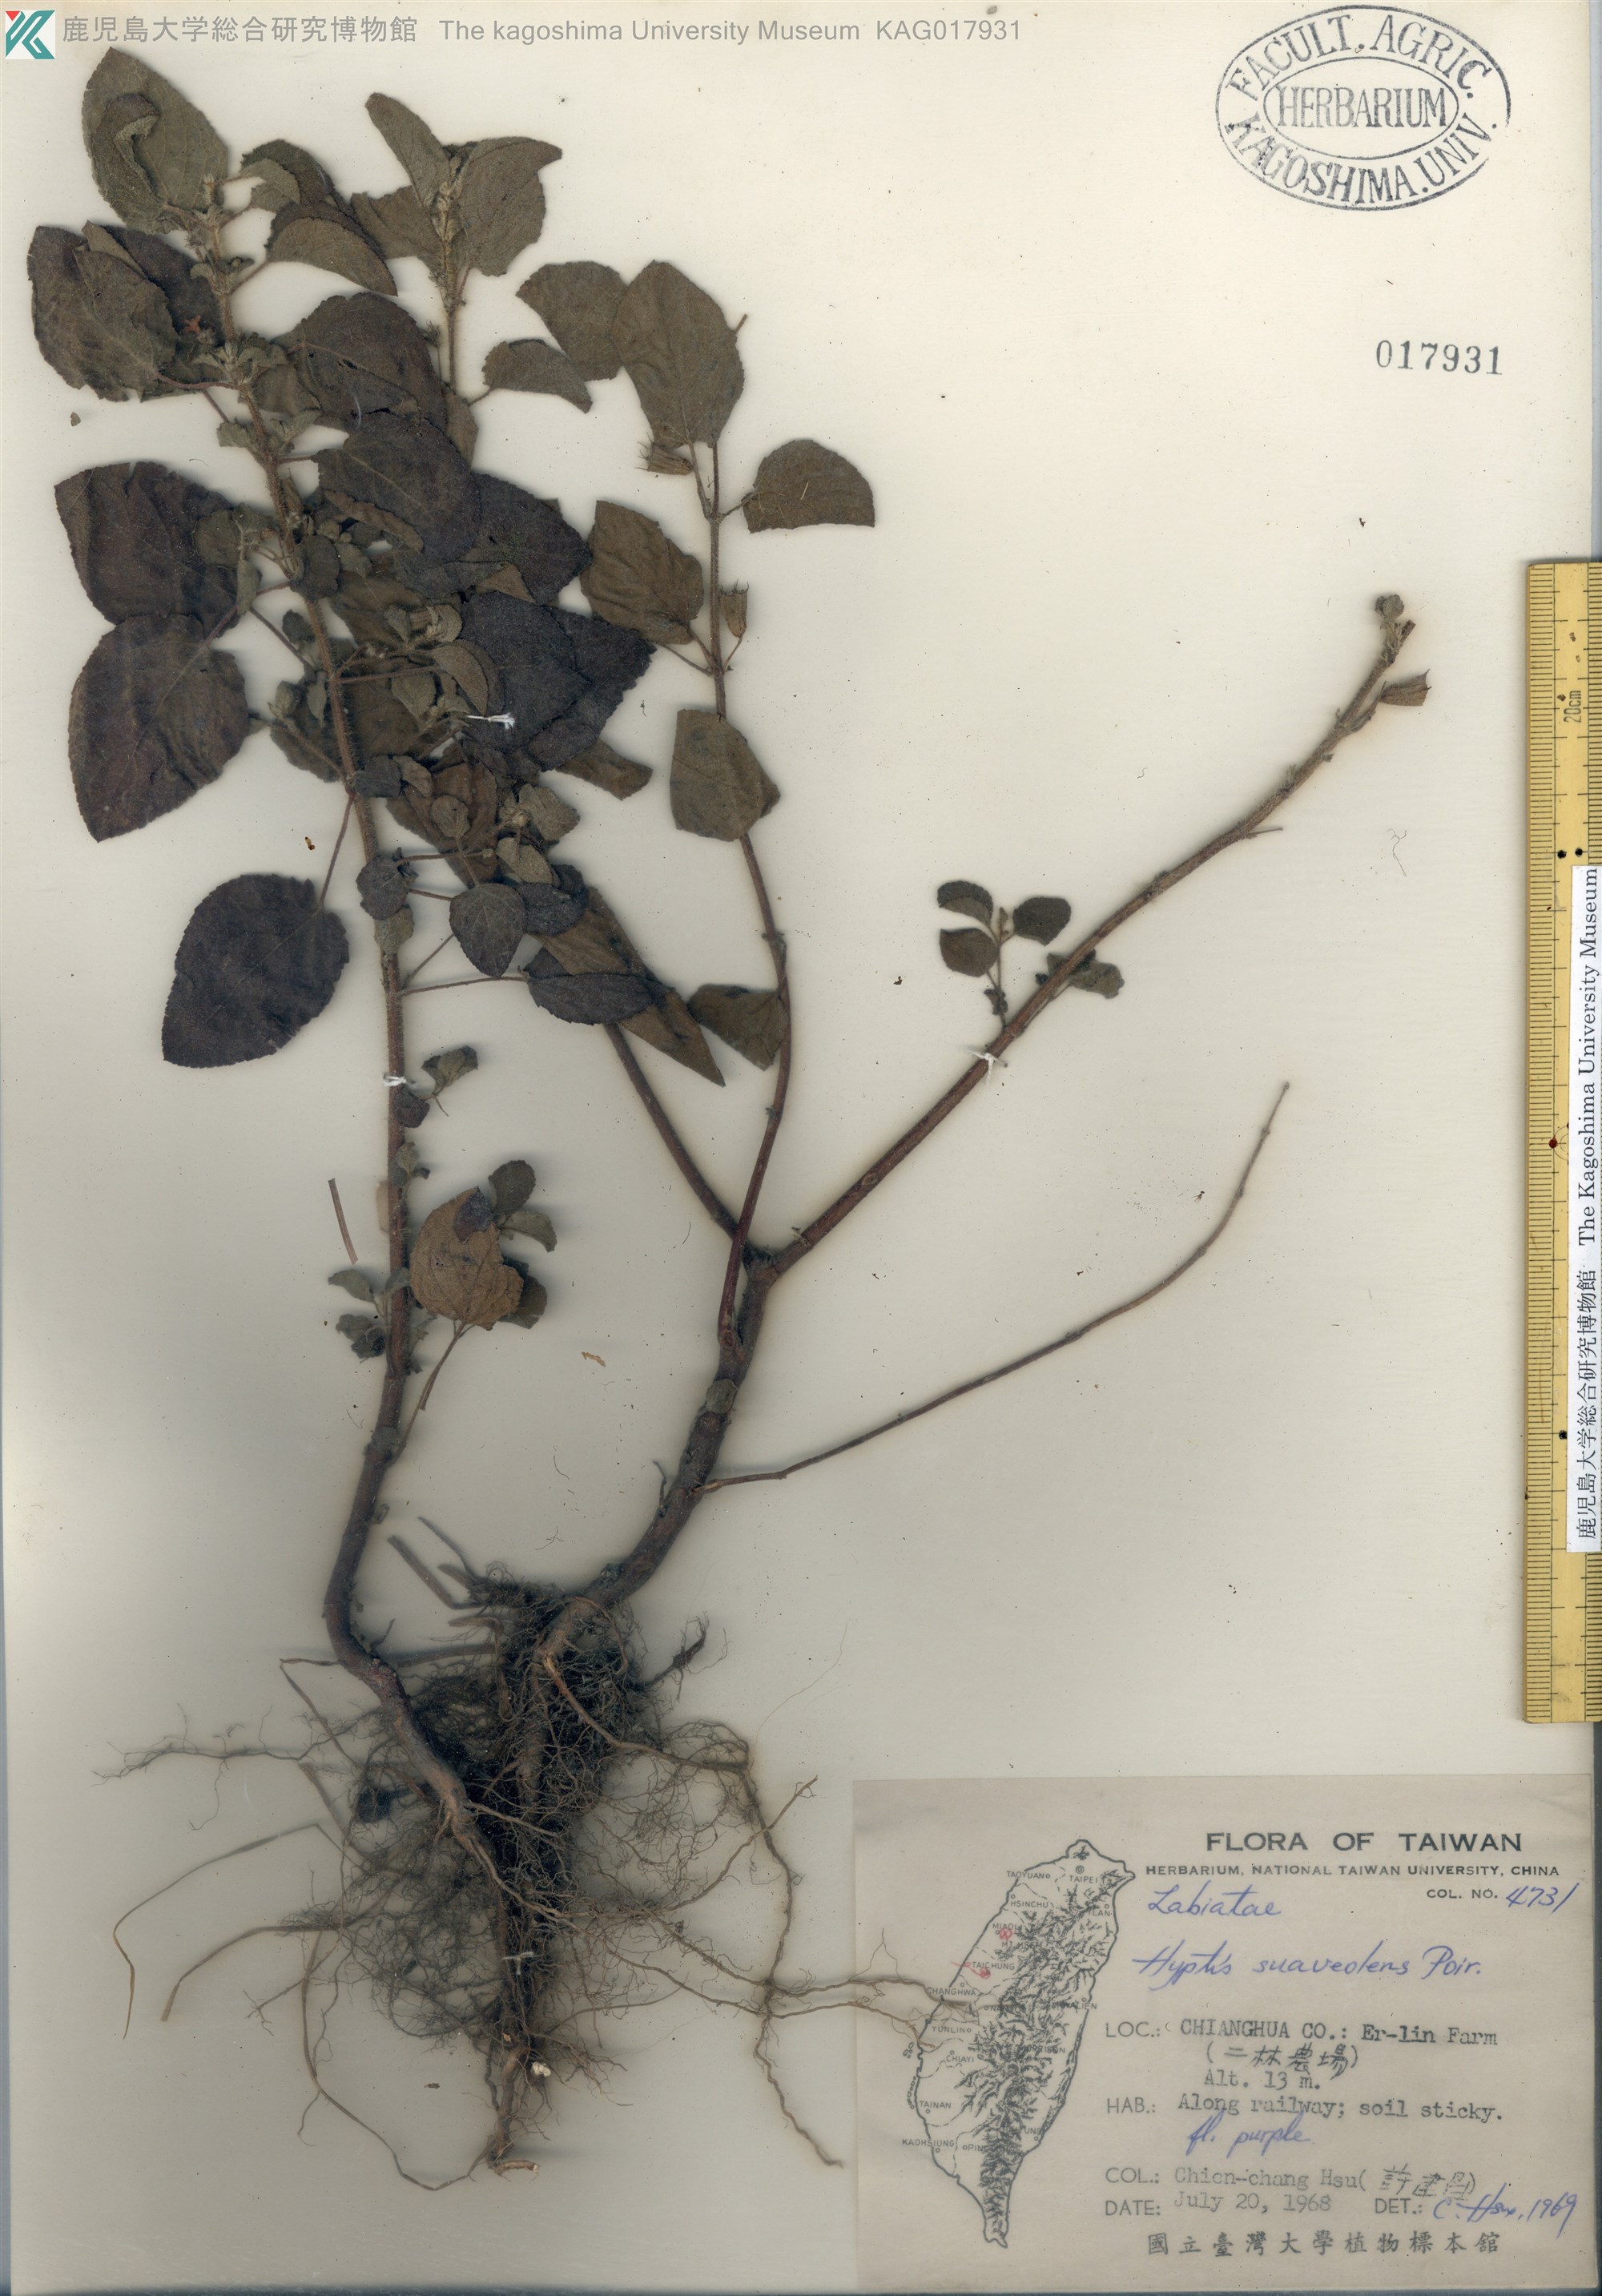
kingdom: Plantae
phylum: Tracheophyta
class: Magnoliopsida
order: Lamiales
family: Lamiaceae
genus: Mesosphaerum
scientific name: Mesosphaerum suaveolens
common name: Pignut
